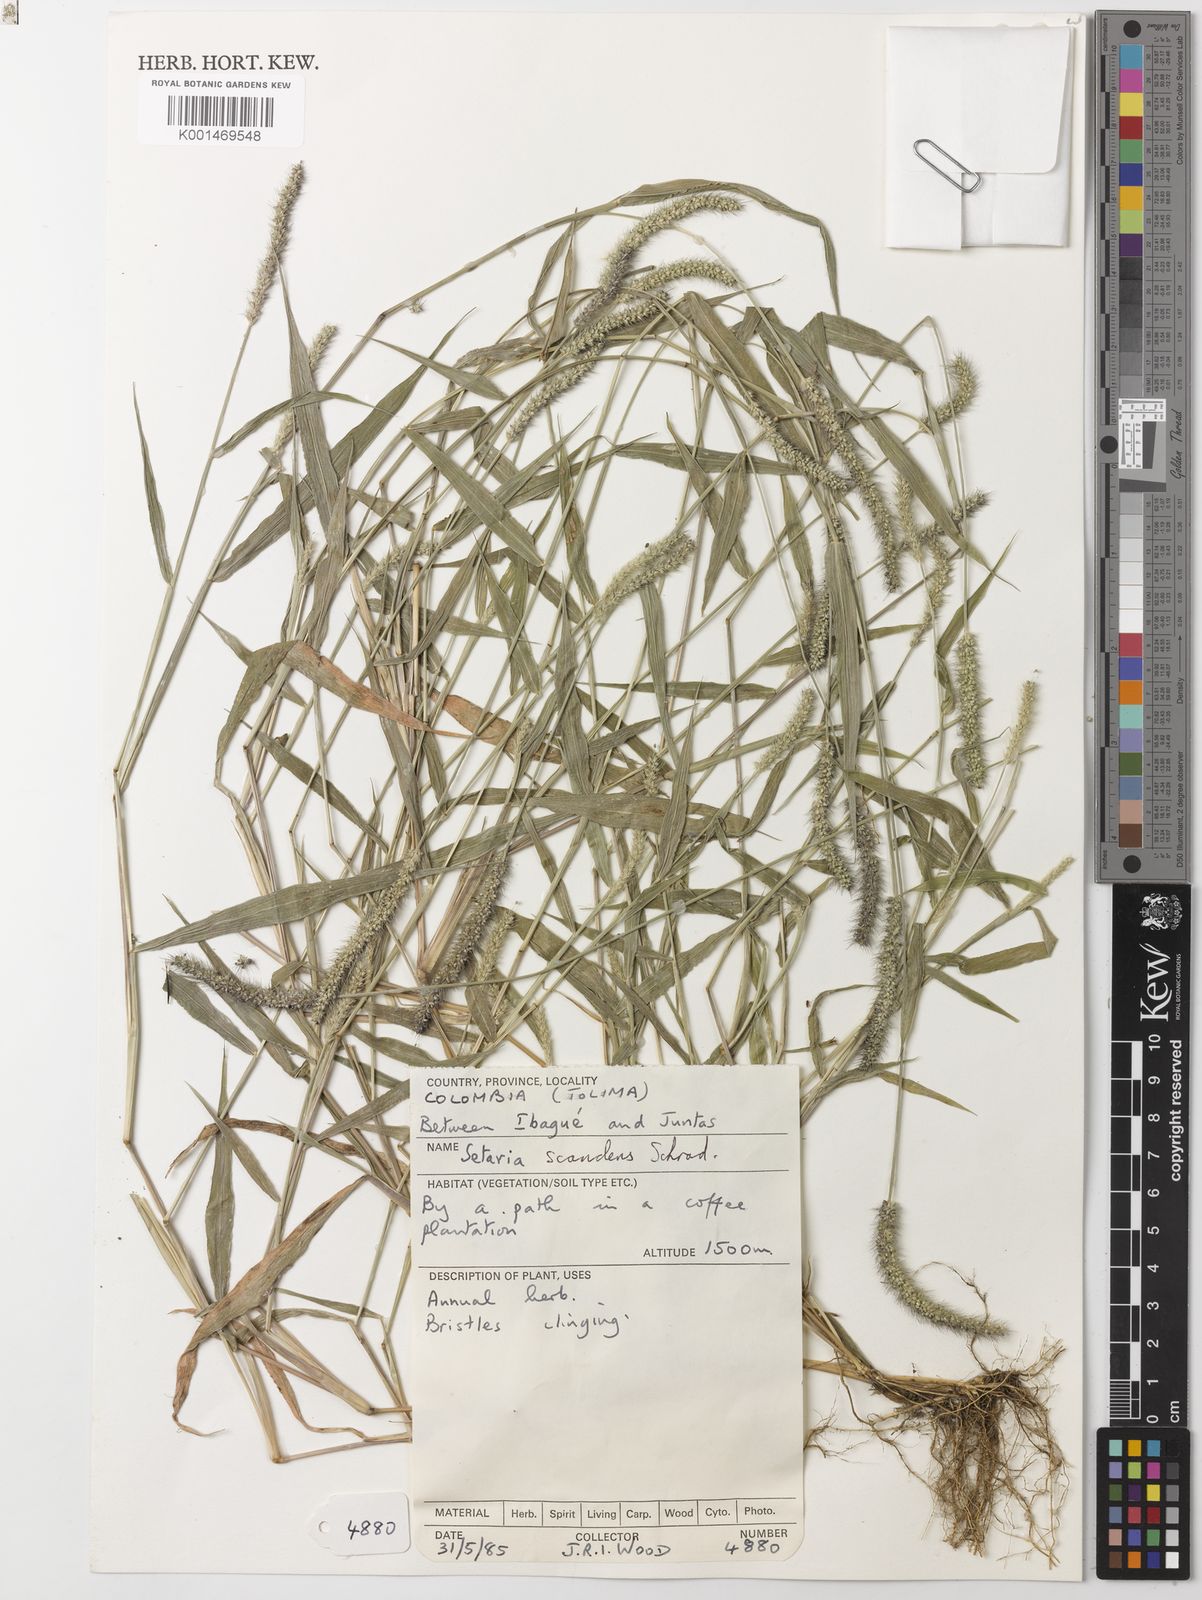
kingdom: Plantae
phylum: Tracheophyta
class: Liliopsida
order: Poales
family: Poaceae
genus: Setaria
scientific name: Setaria scandens
